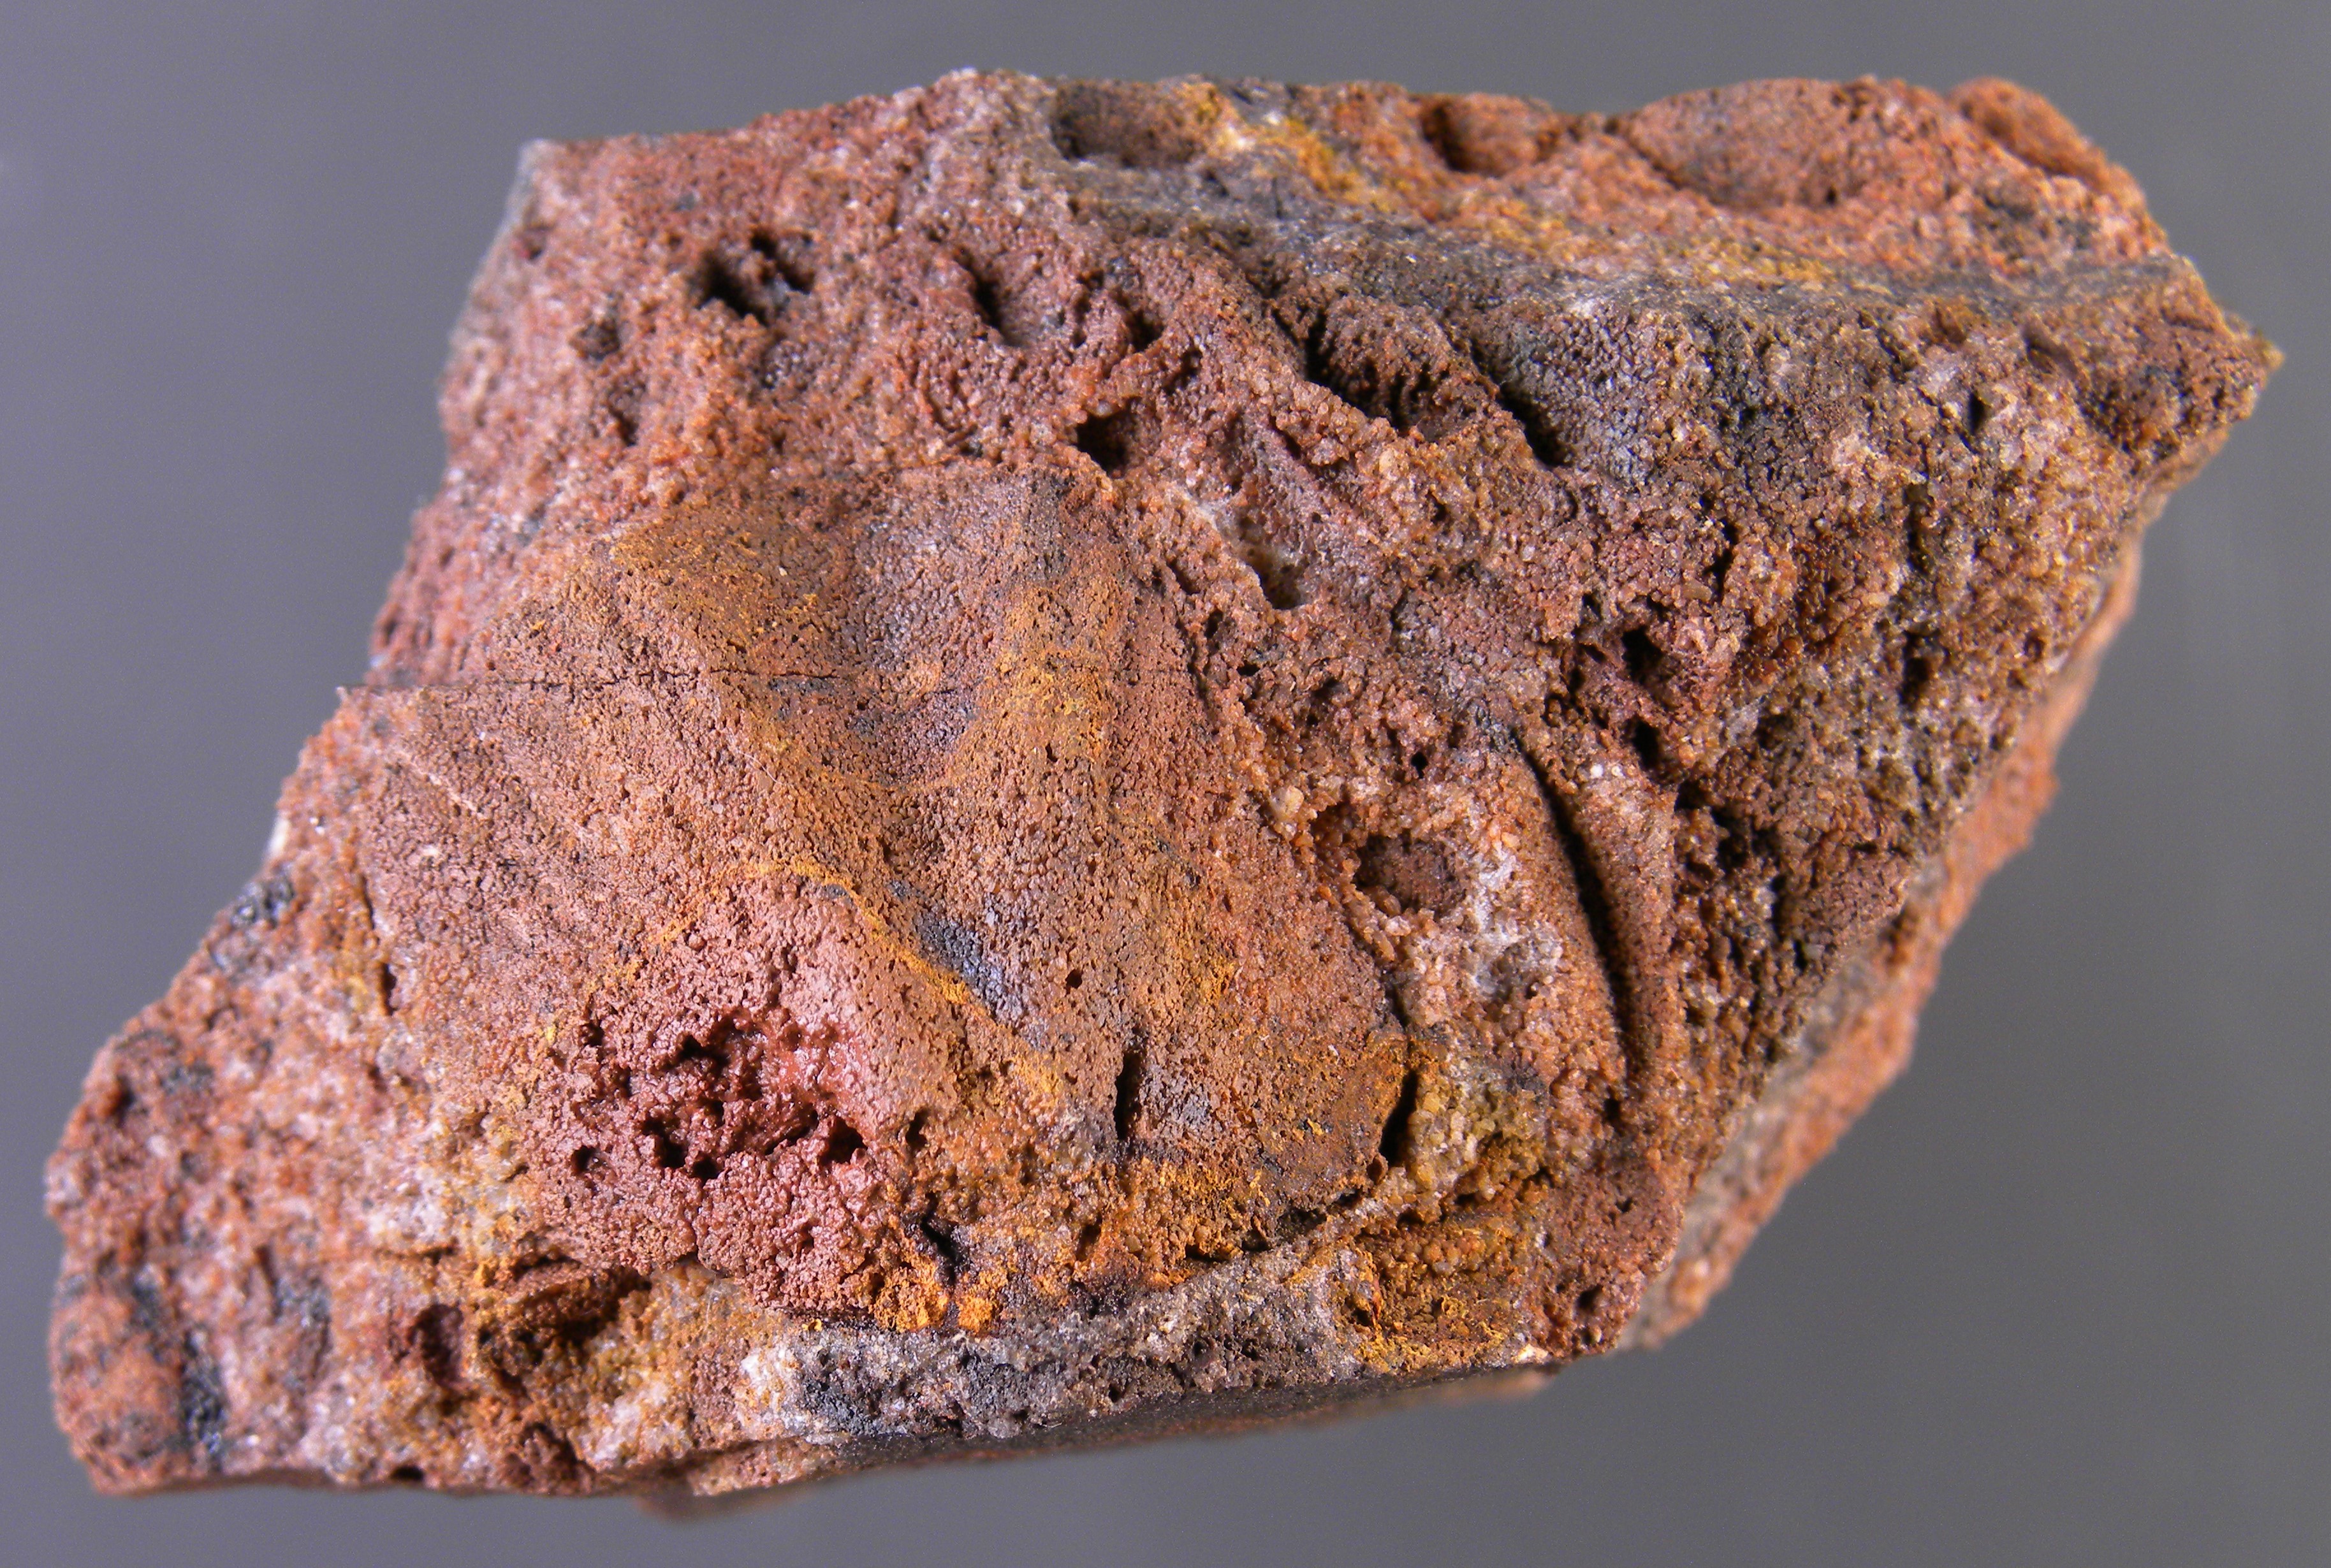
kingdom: Animalia
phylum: Brachiopoda
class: Rhynchonellata
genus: Tenuicostella
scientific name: Tenuicostella
